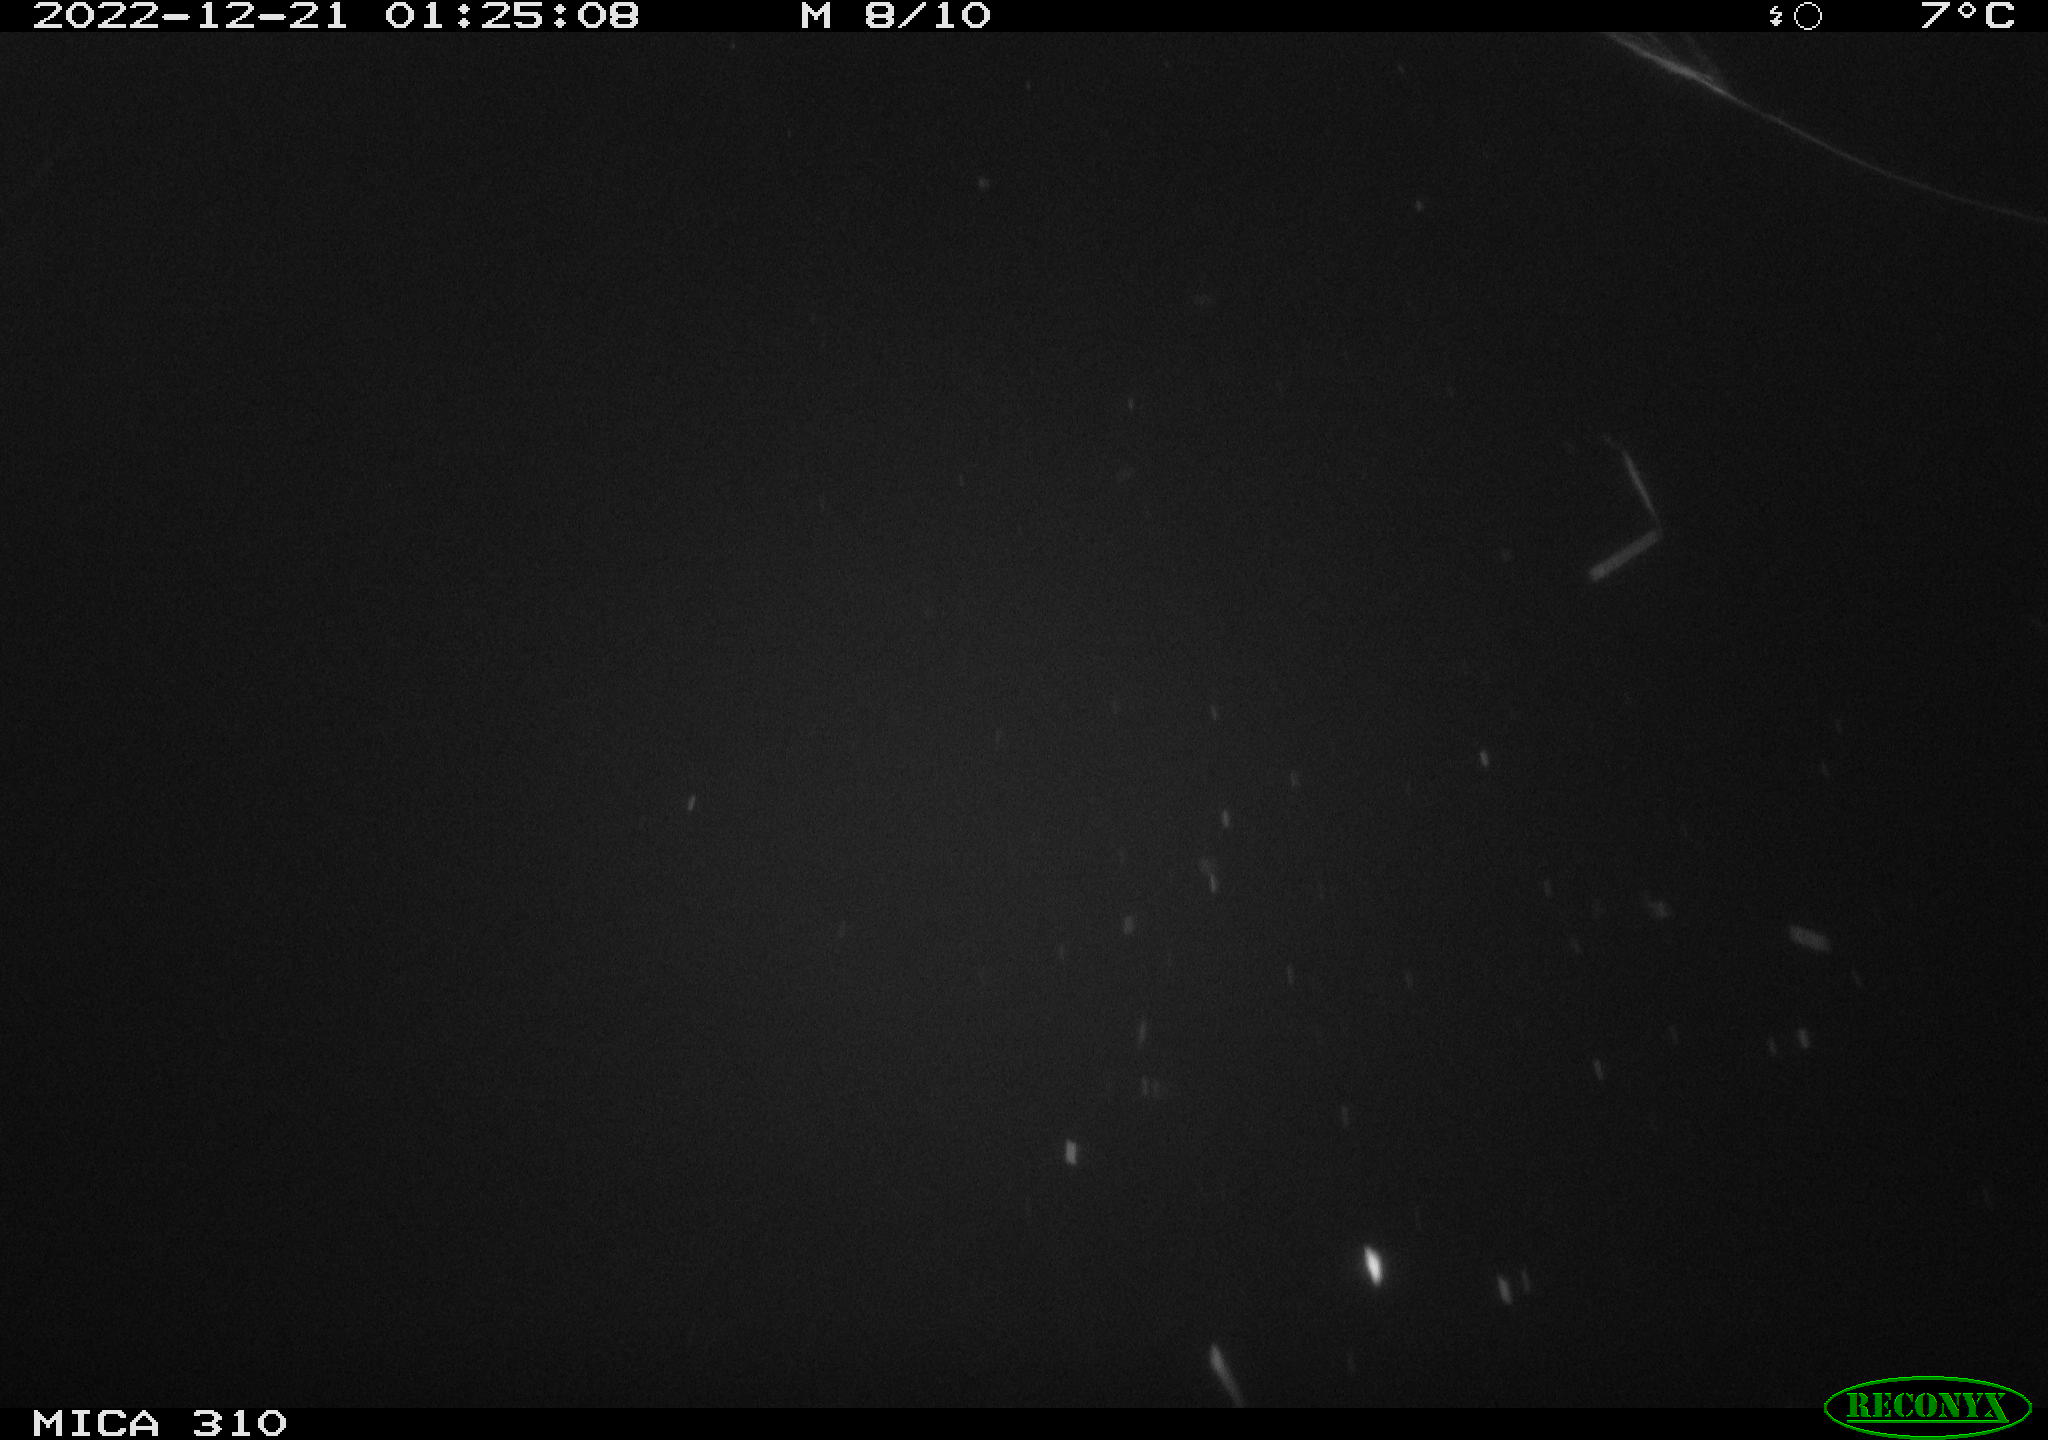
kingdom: Animalia
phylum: Chordata
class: Mammalia
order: Rodentia
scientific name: Rodentia
